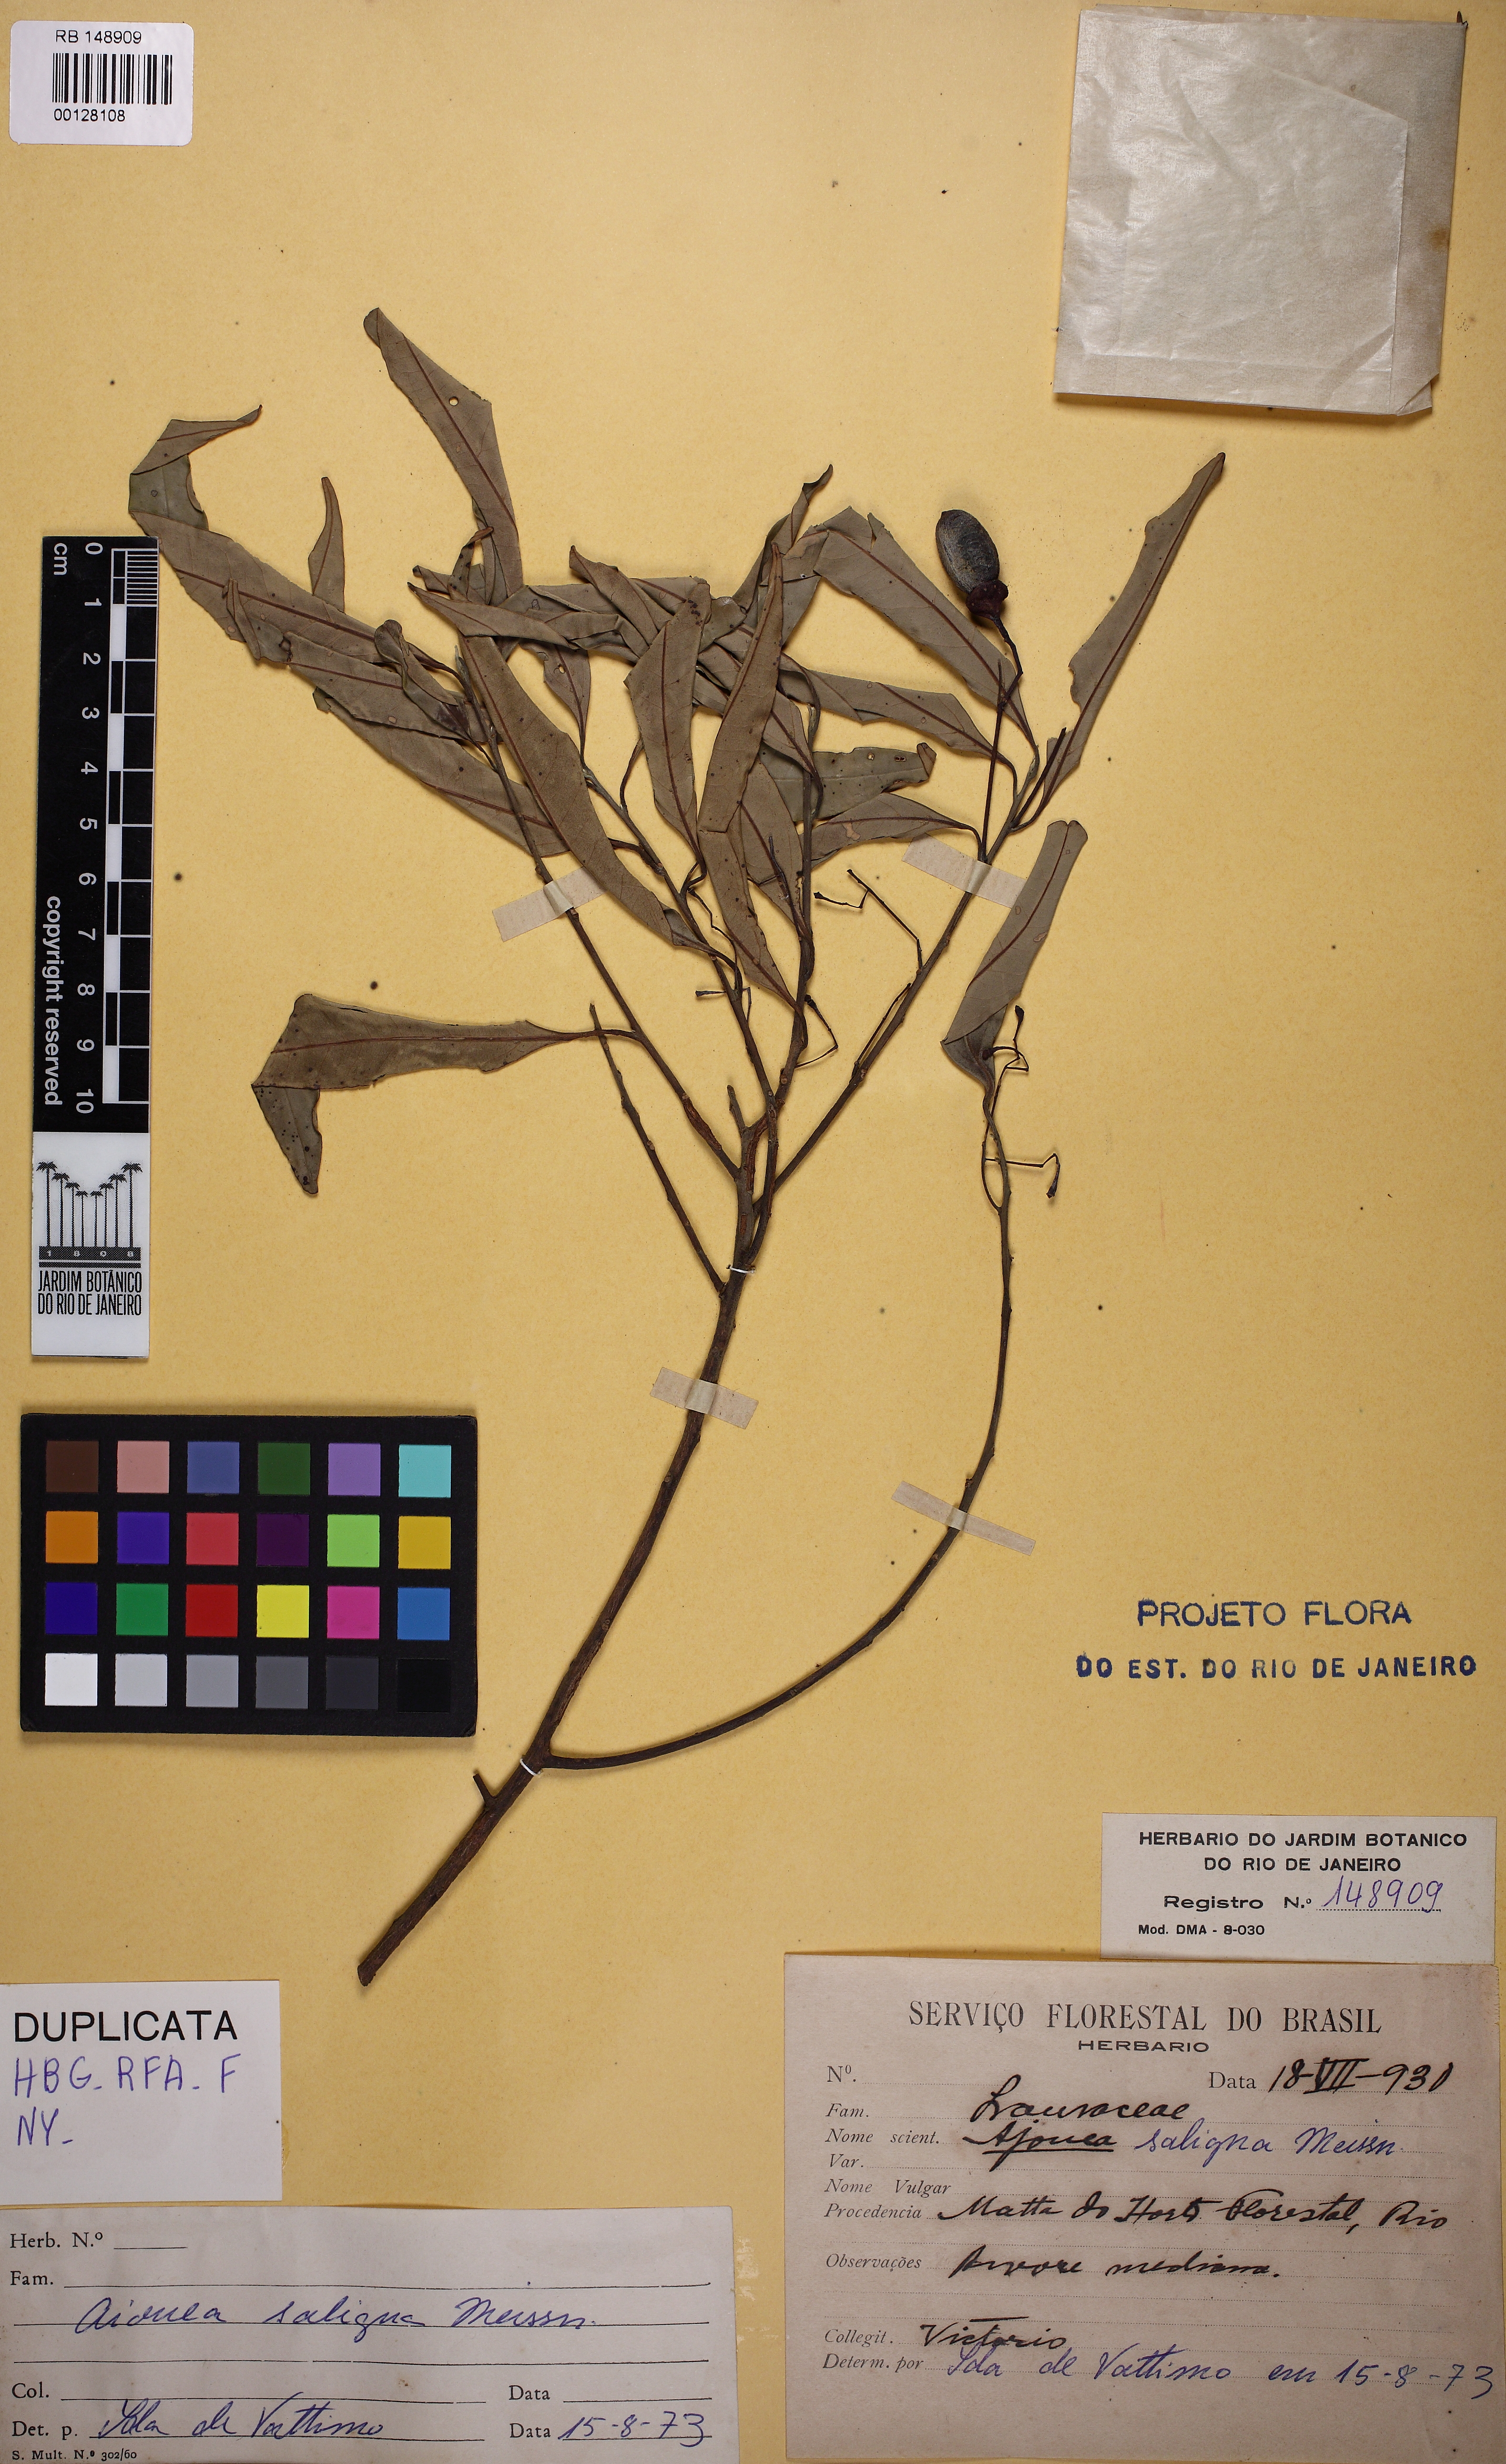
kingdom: Plantae
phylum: Tracheophyta
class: Magnoliopsida
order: Laurales
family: Lauraceae
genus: Aiouea
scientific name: Aiouea saligna
